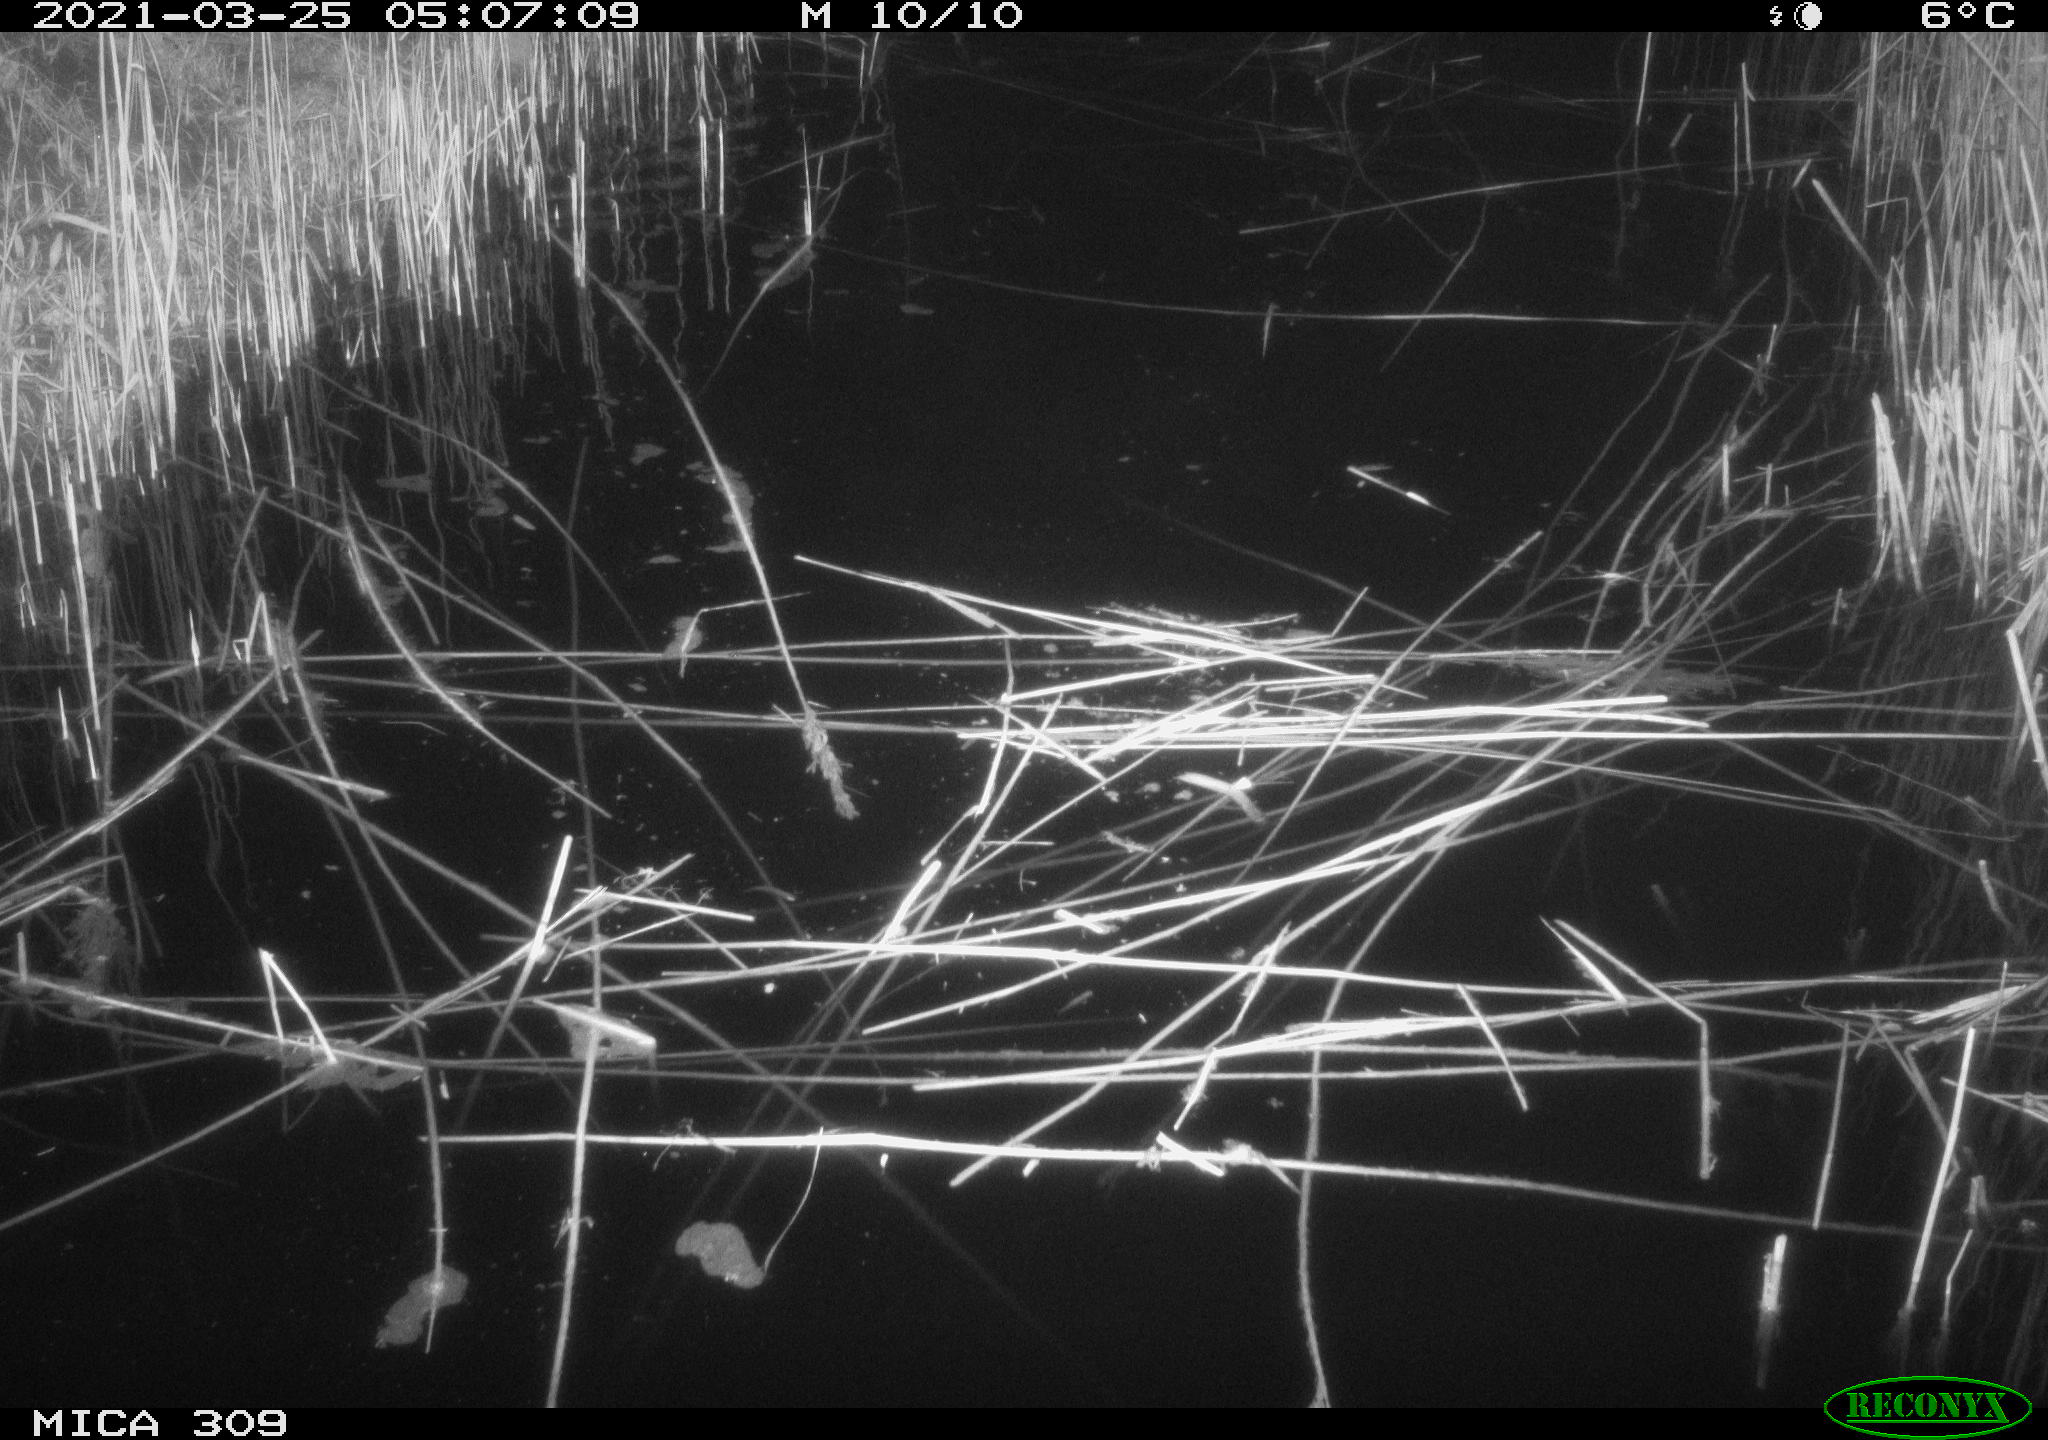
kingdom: Animalia
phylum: Chordata
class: Aves
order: Anseriformes
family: Anatidae
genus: Anas
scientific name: Anas platyrhynchos
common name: Mallard
